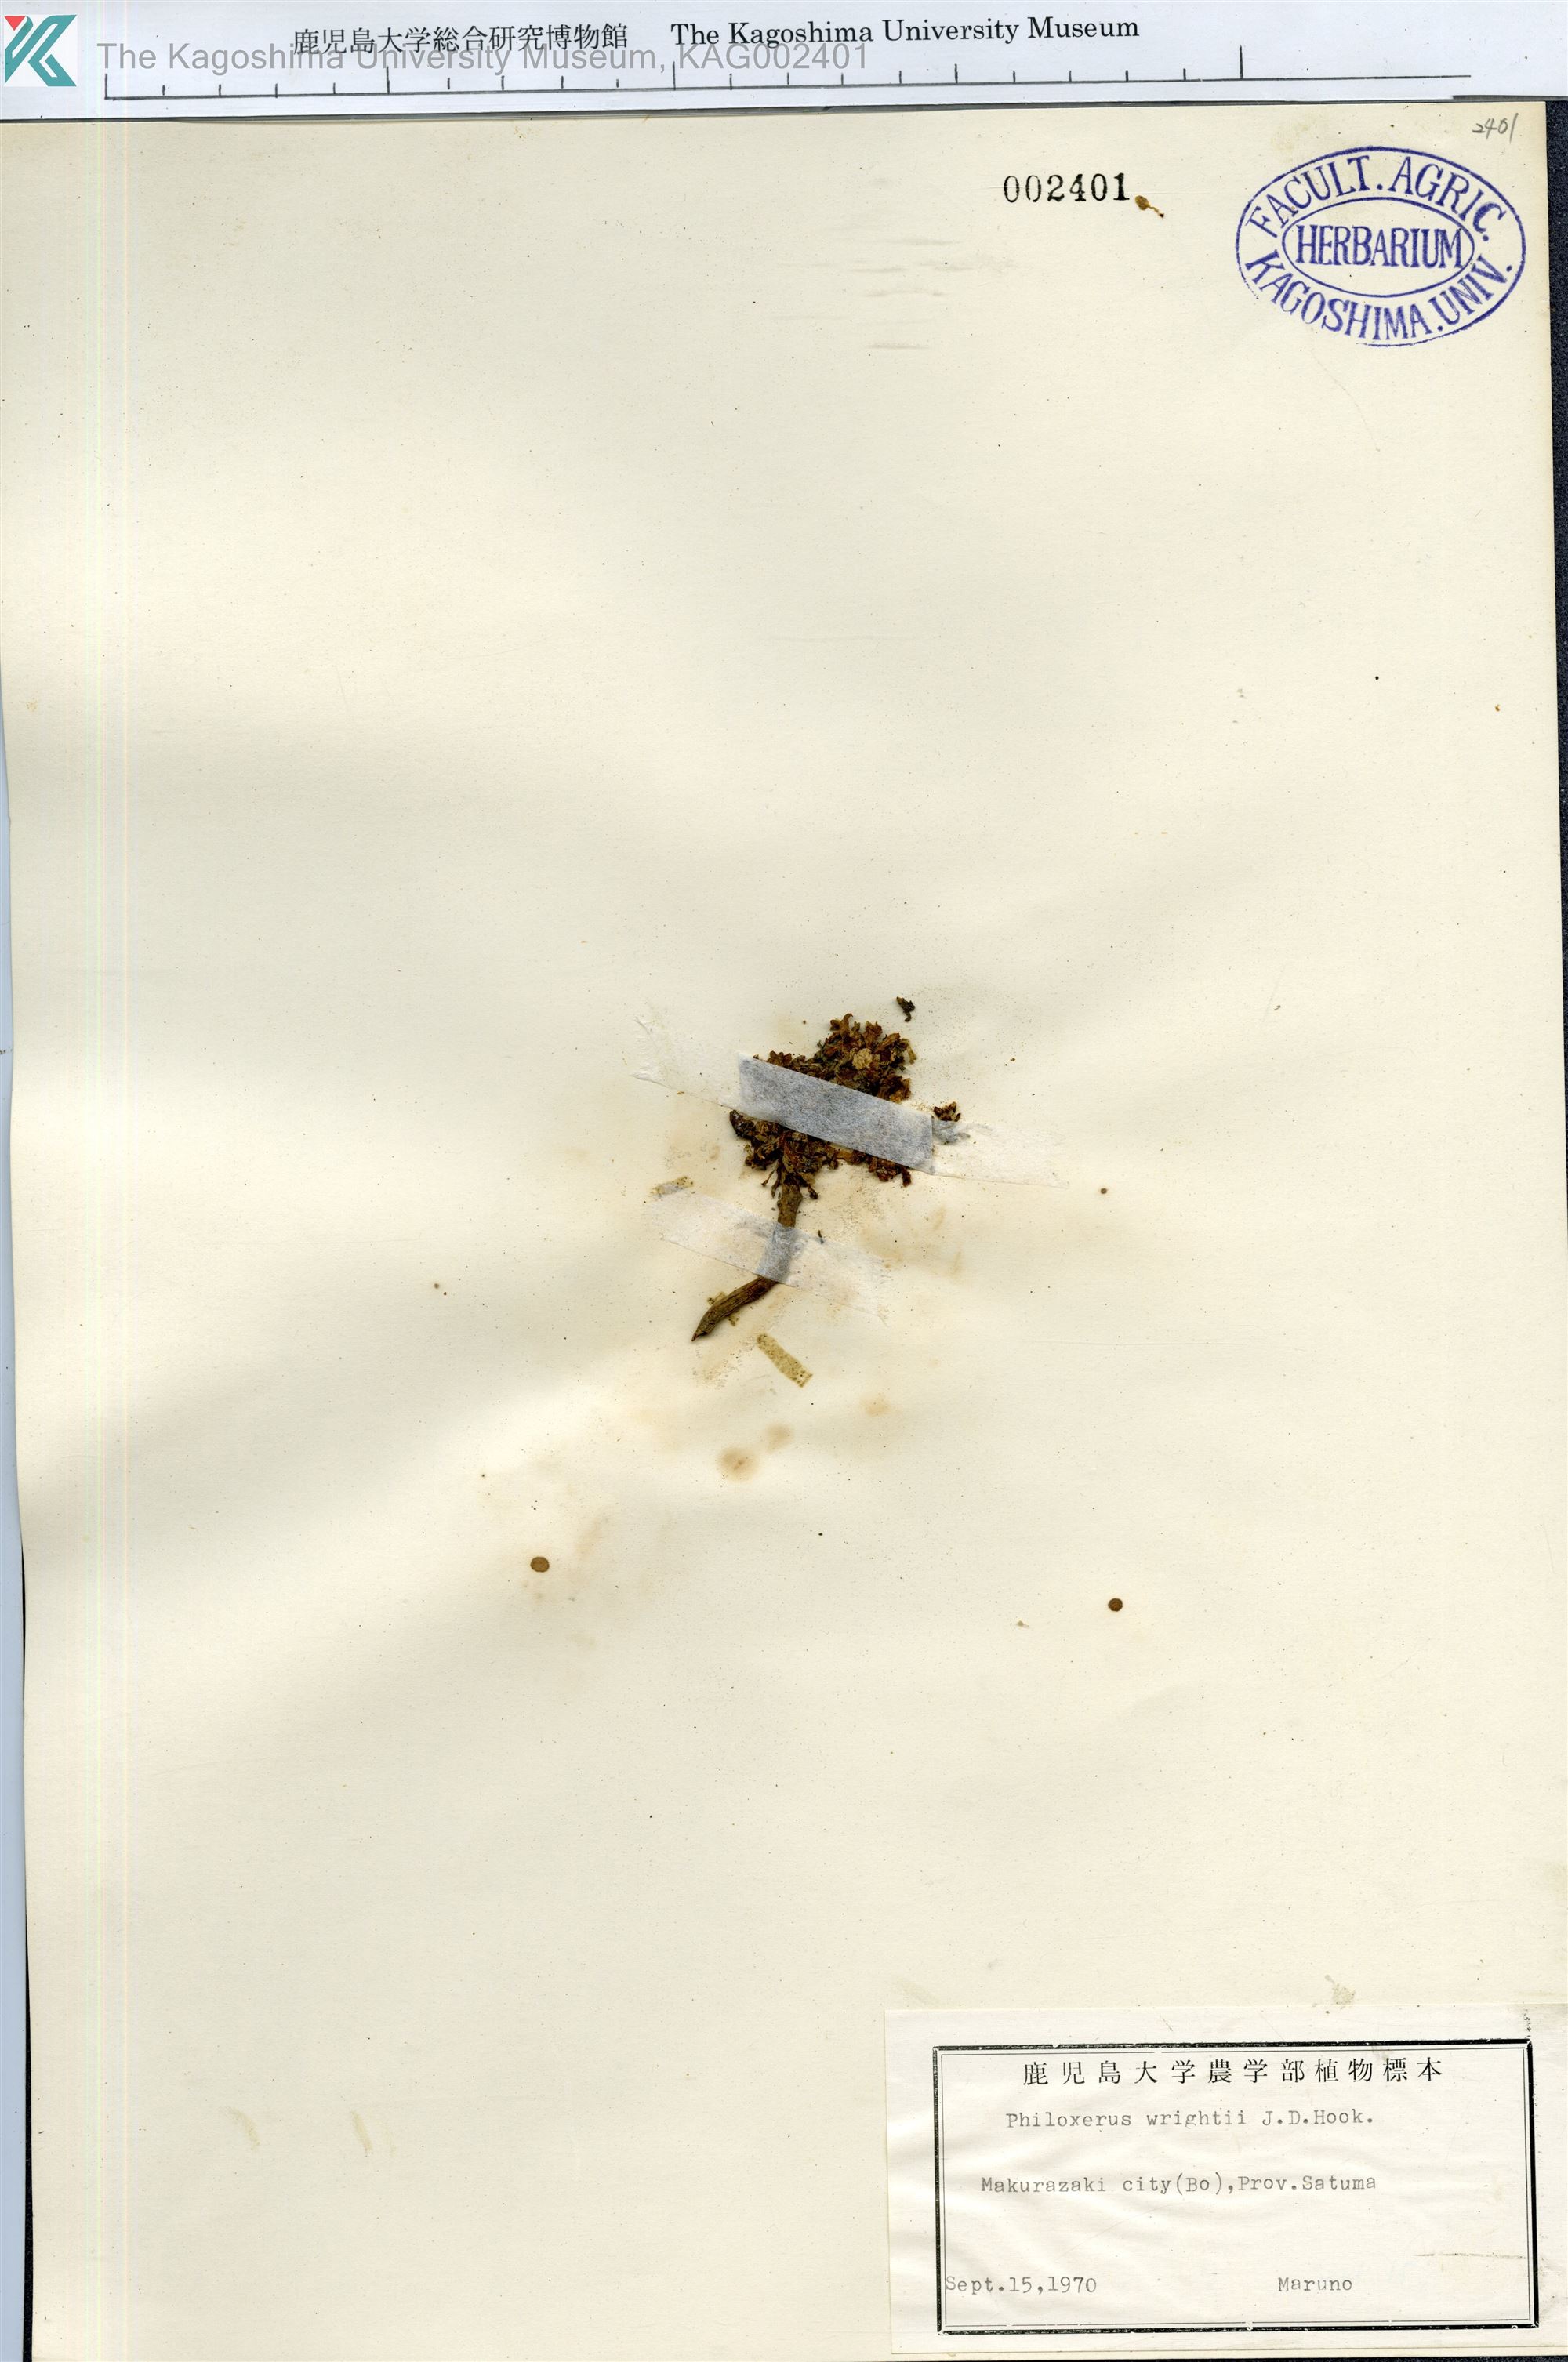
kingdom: Plantae
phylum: Tracheophyta
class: Magnoliopsida
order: Caryophyllales
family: Amaranthaceae
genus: Gomphrena
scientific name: Gomphrena wrightii
